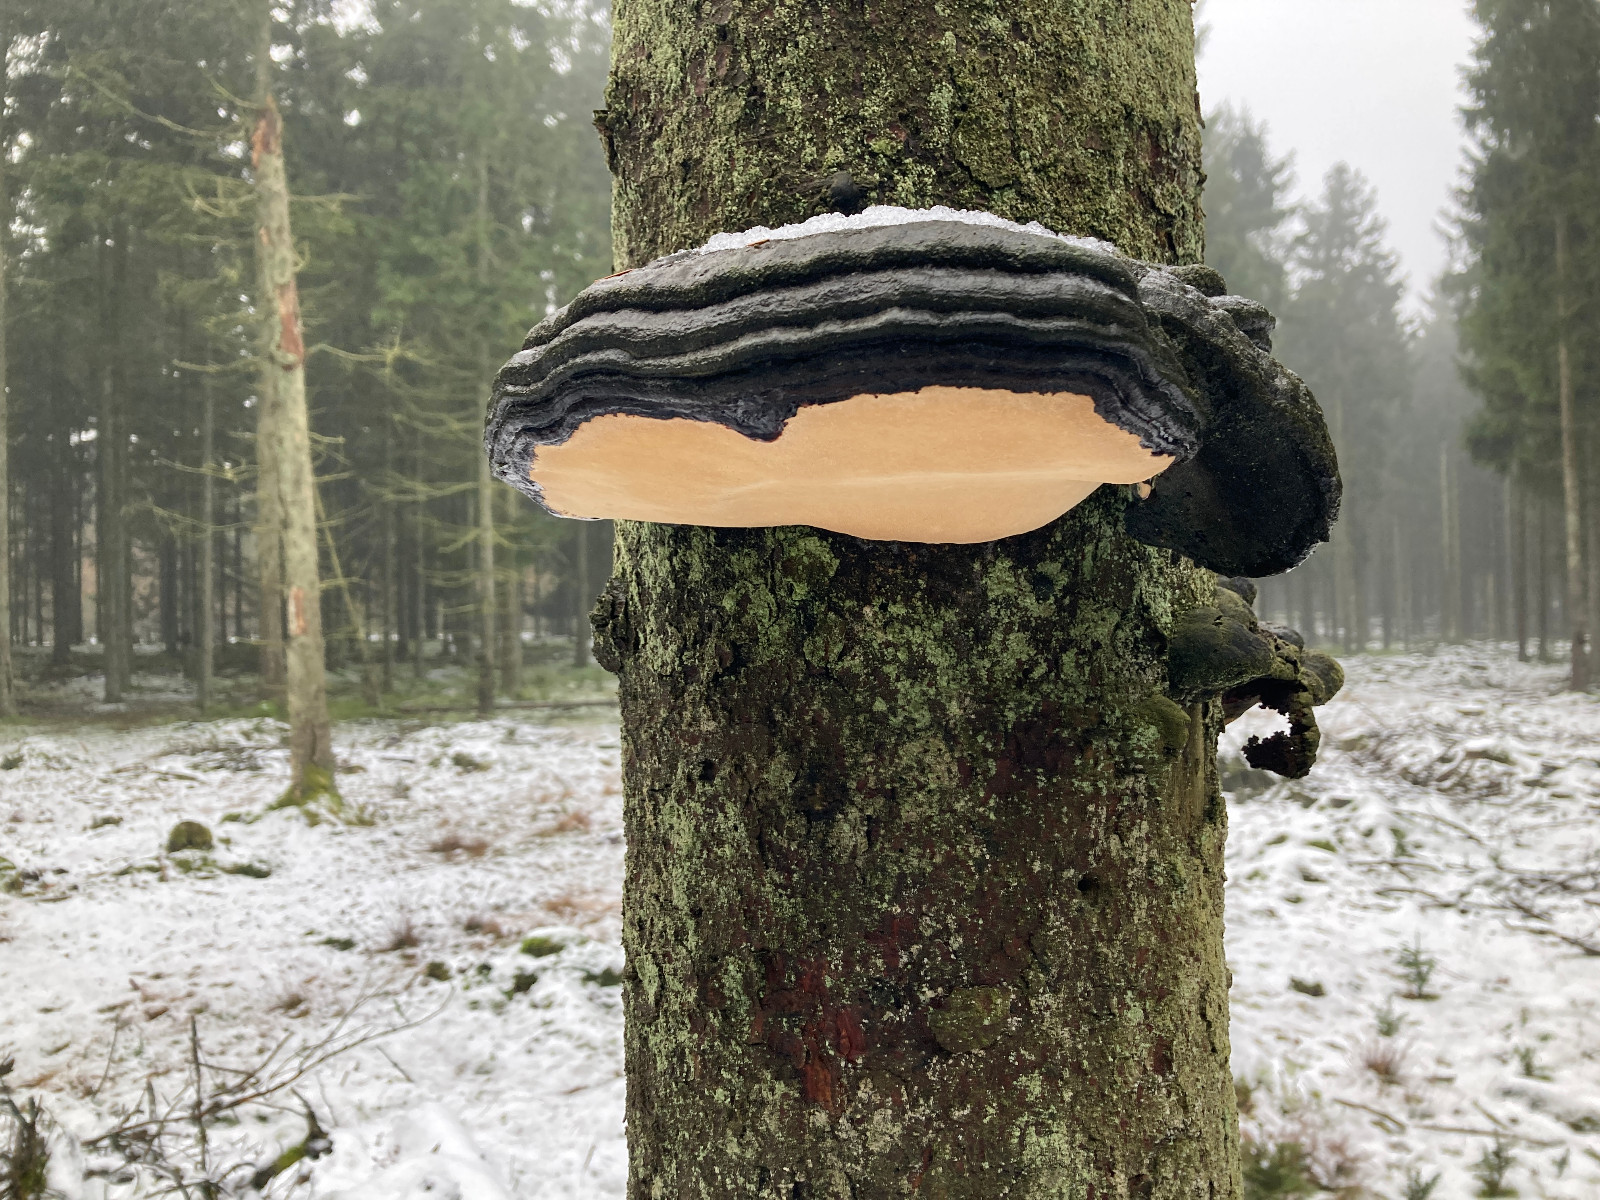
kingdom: Fungi
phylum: Basidiomycota
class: Agaricomycetes
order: Polyporales
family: Fomitopsidaceae
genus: Fomitopsis
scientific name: Fomitopsis pinicola
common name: randbæltet hovporesvamp
